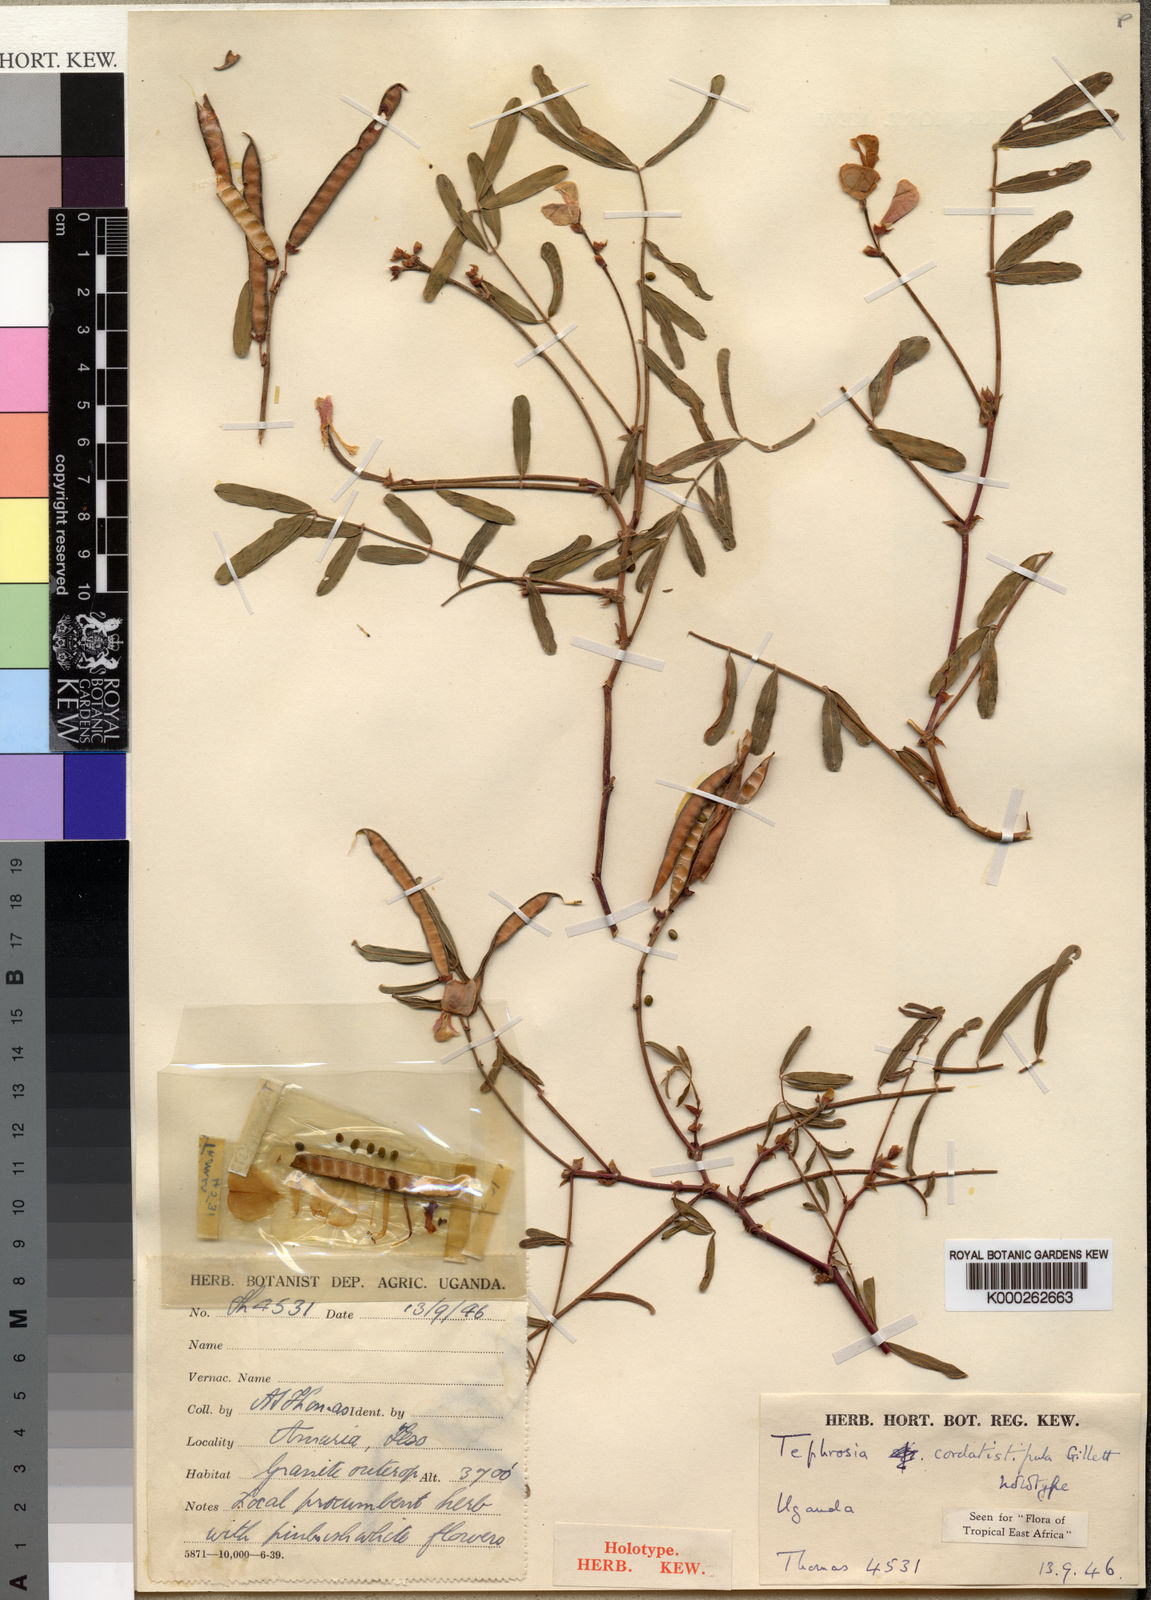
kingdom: Plantae
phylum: Tracheophyta
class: Magnoliopsida
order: Fabales
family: Fabaceae
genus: Tephrosia
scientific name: Tephrosia cordatistipula
